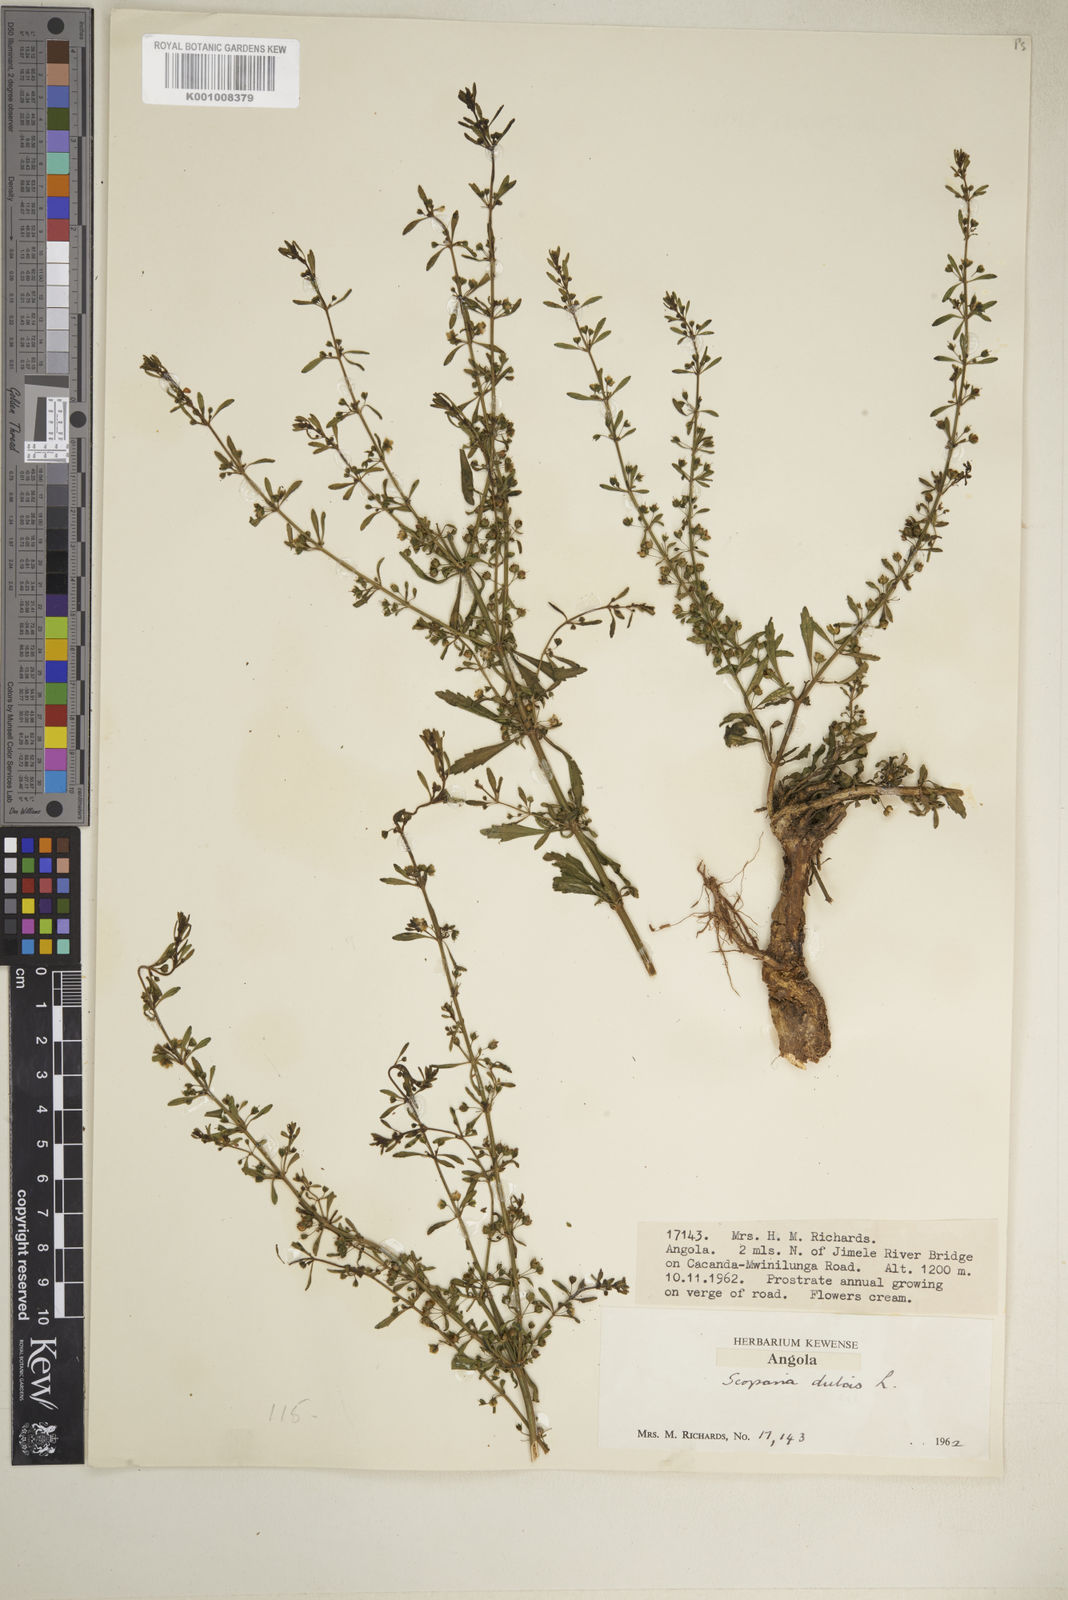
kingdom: Plantae
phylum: Tracheophyta
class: Magnoliopsida
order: Lamiales
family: Plantaginaceae
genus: Scoparia
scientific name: Scoparia dulcis
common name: Scoparia-weed
